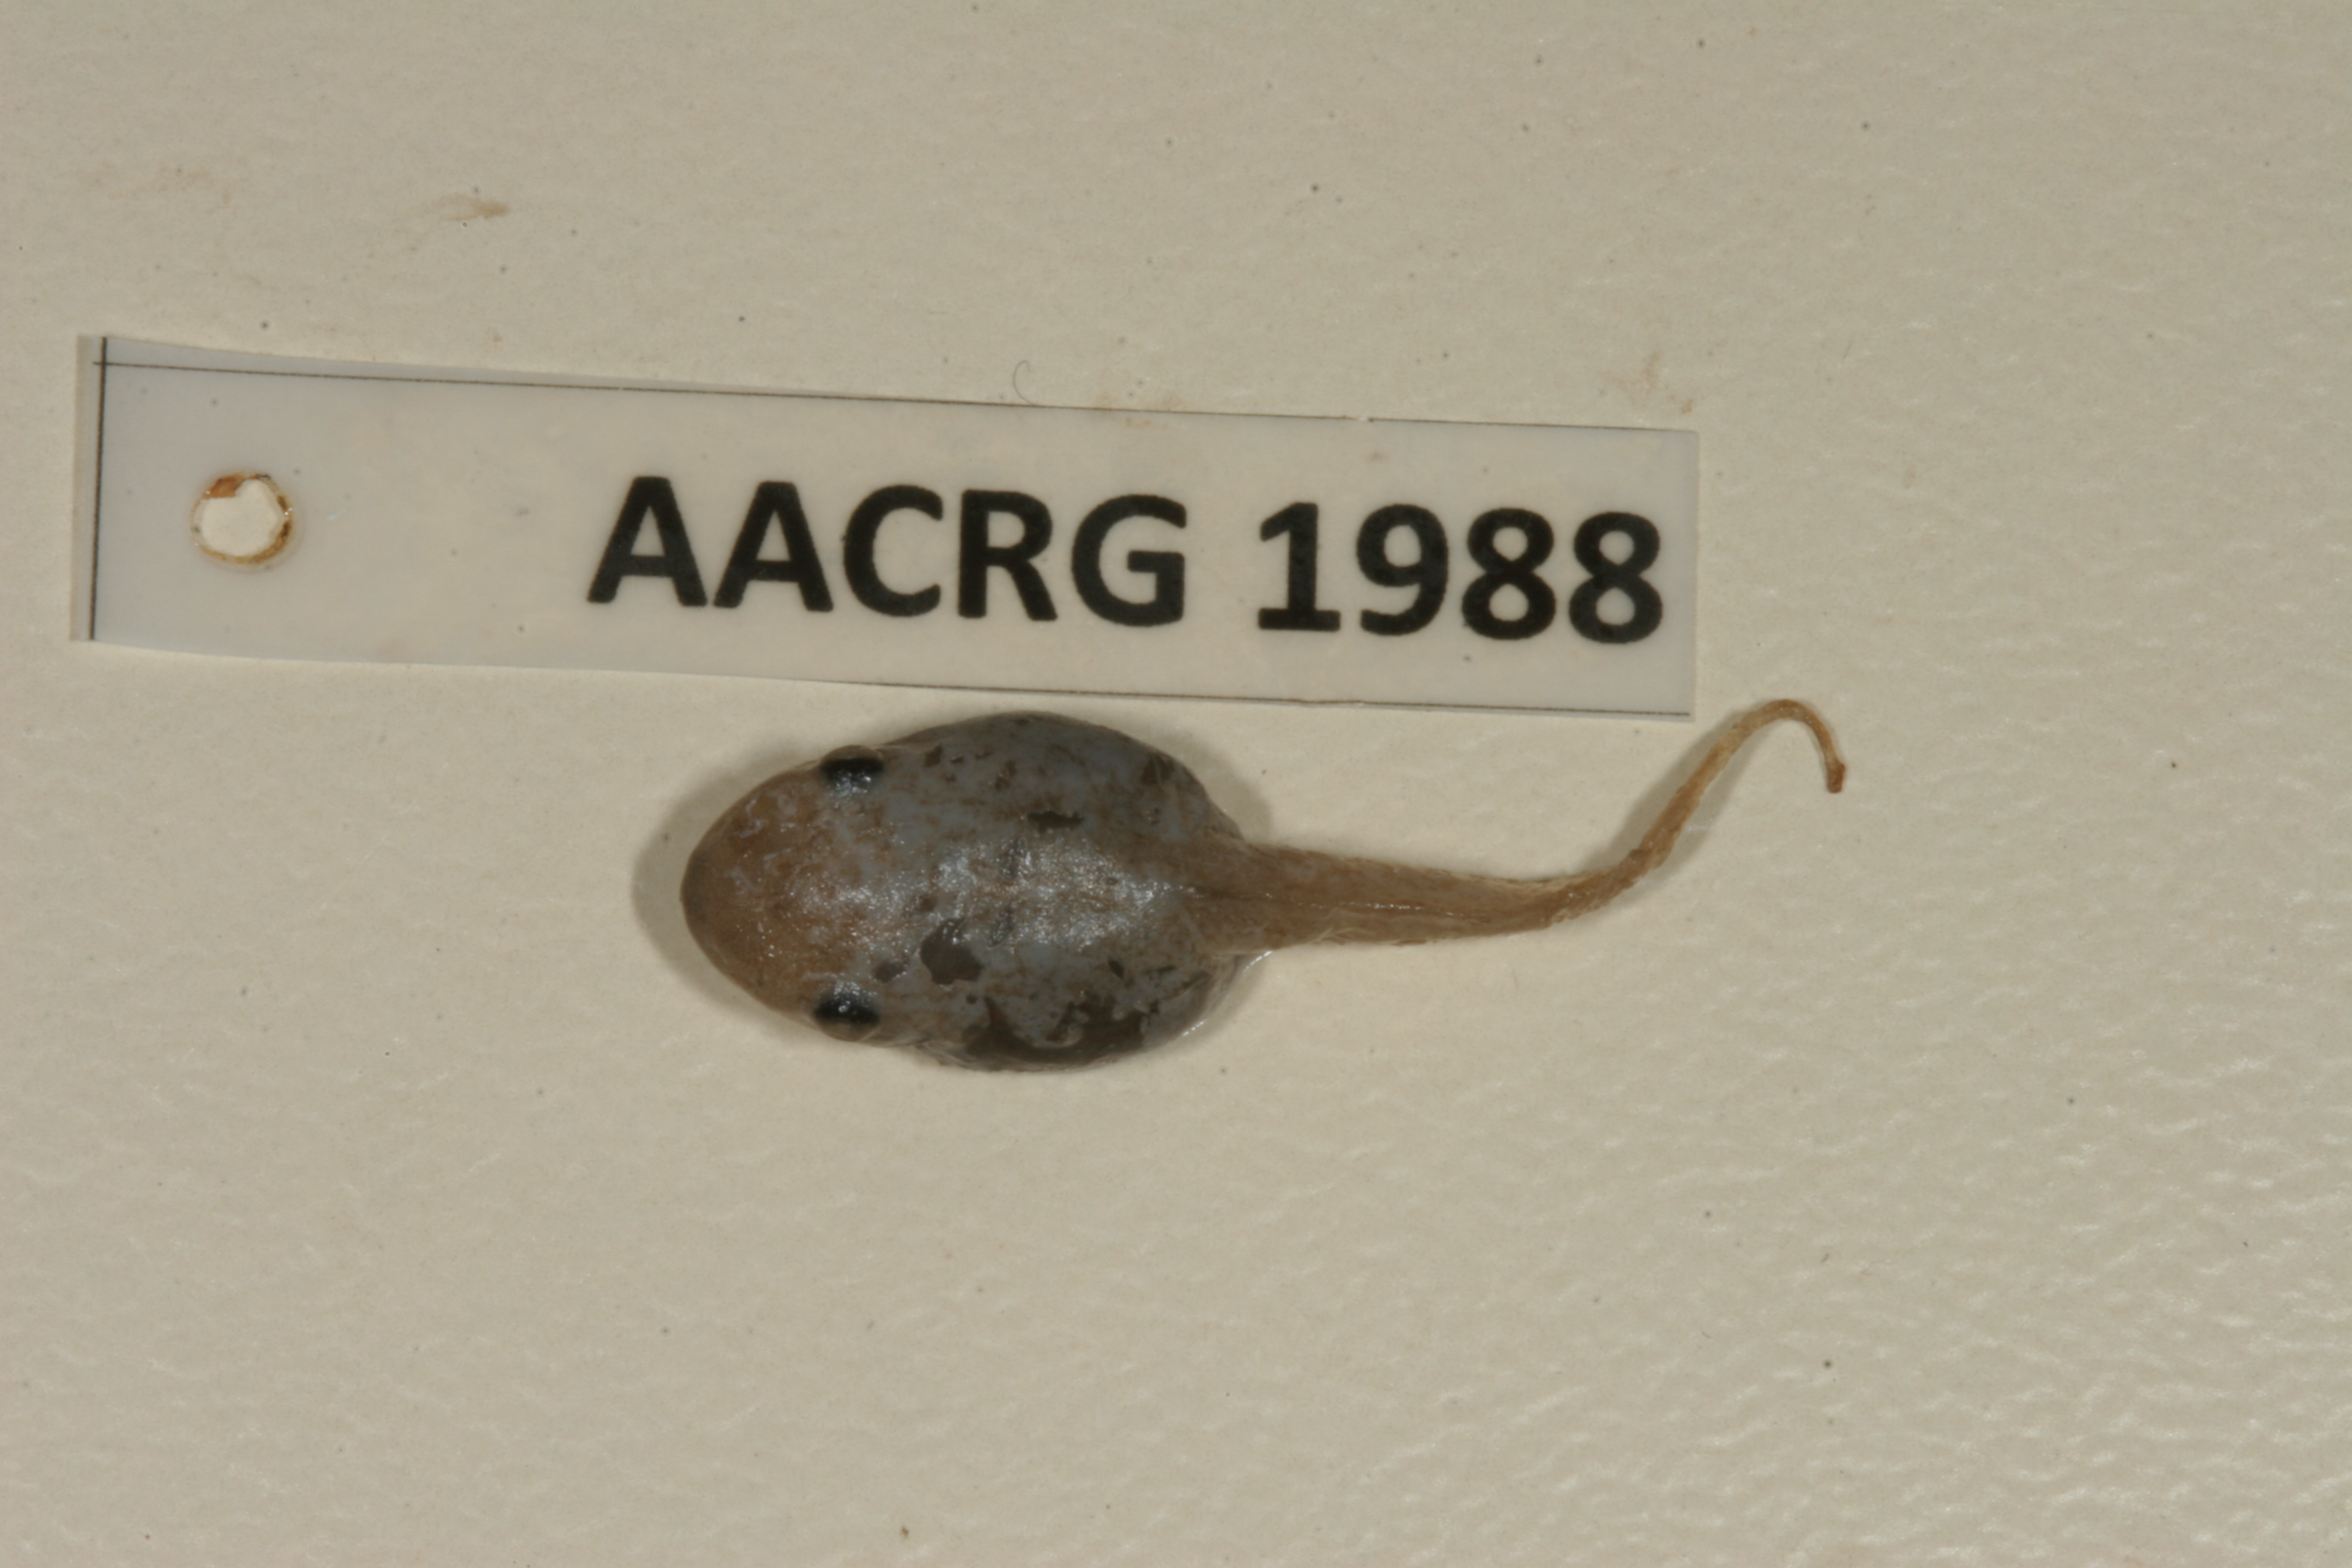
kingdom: Animalia
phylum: Chordata
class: Amphibia
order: Anura
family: Hemisotidae
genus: Hemisus
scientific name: Hemisus marmoratus
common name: Mottled shovel-nosed frog
